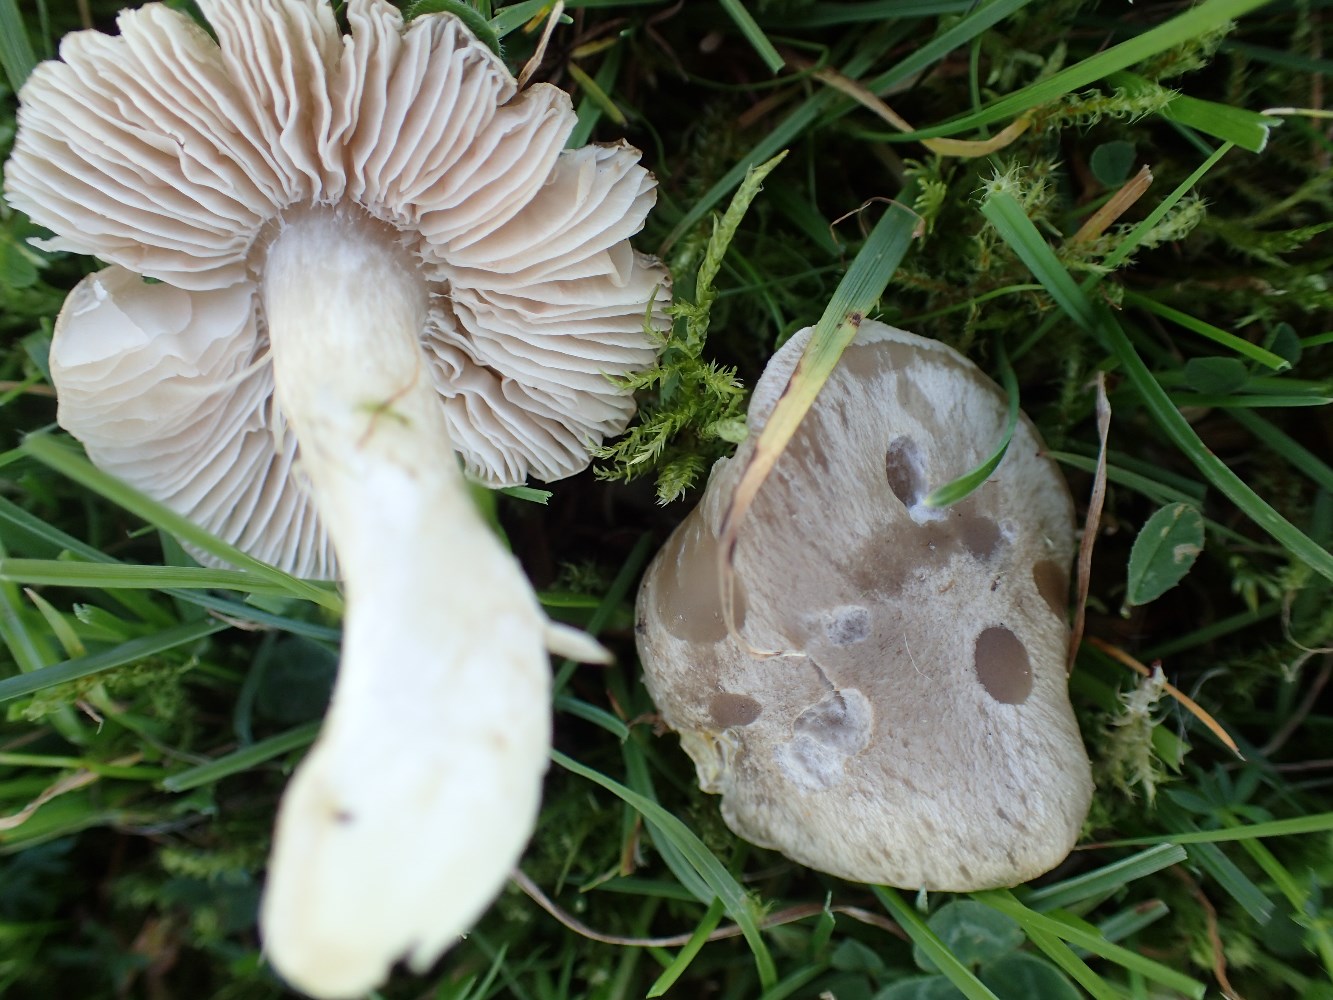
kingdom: Fungi
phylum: Basidiomycota
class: Agaricomycetes
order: Agaricales
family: Entolomataceae
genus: Entoloma
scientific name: Entoloma prunuloides
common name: mel-rødblad
